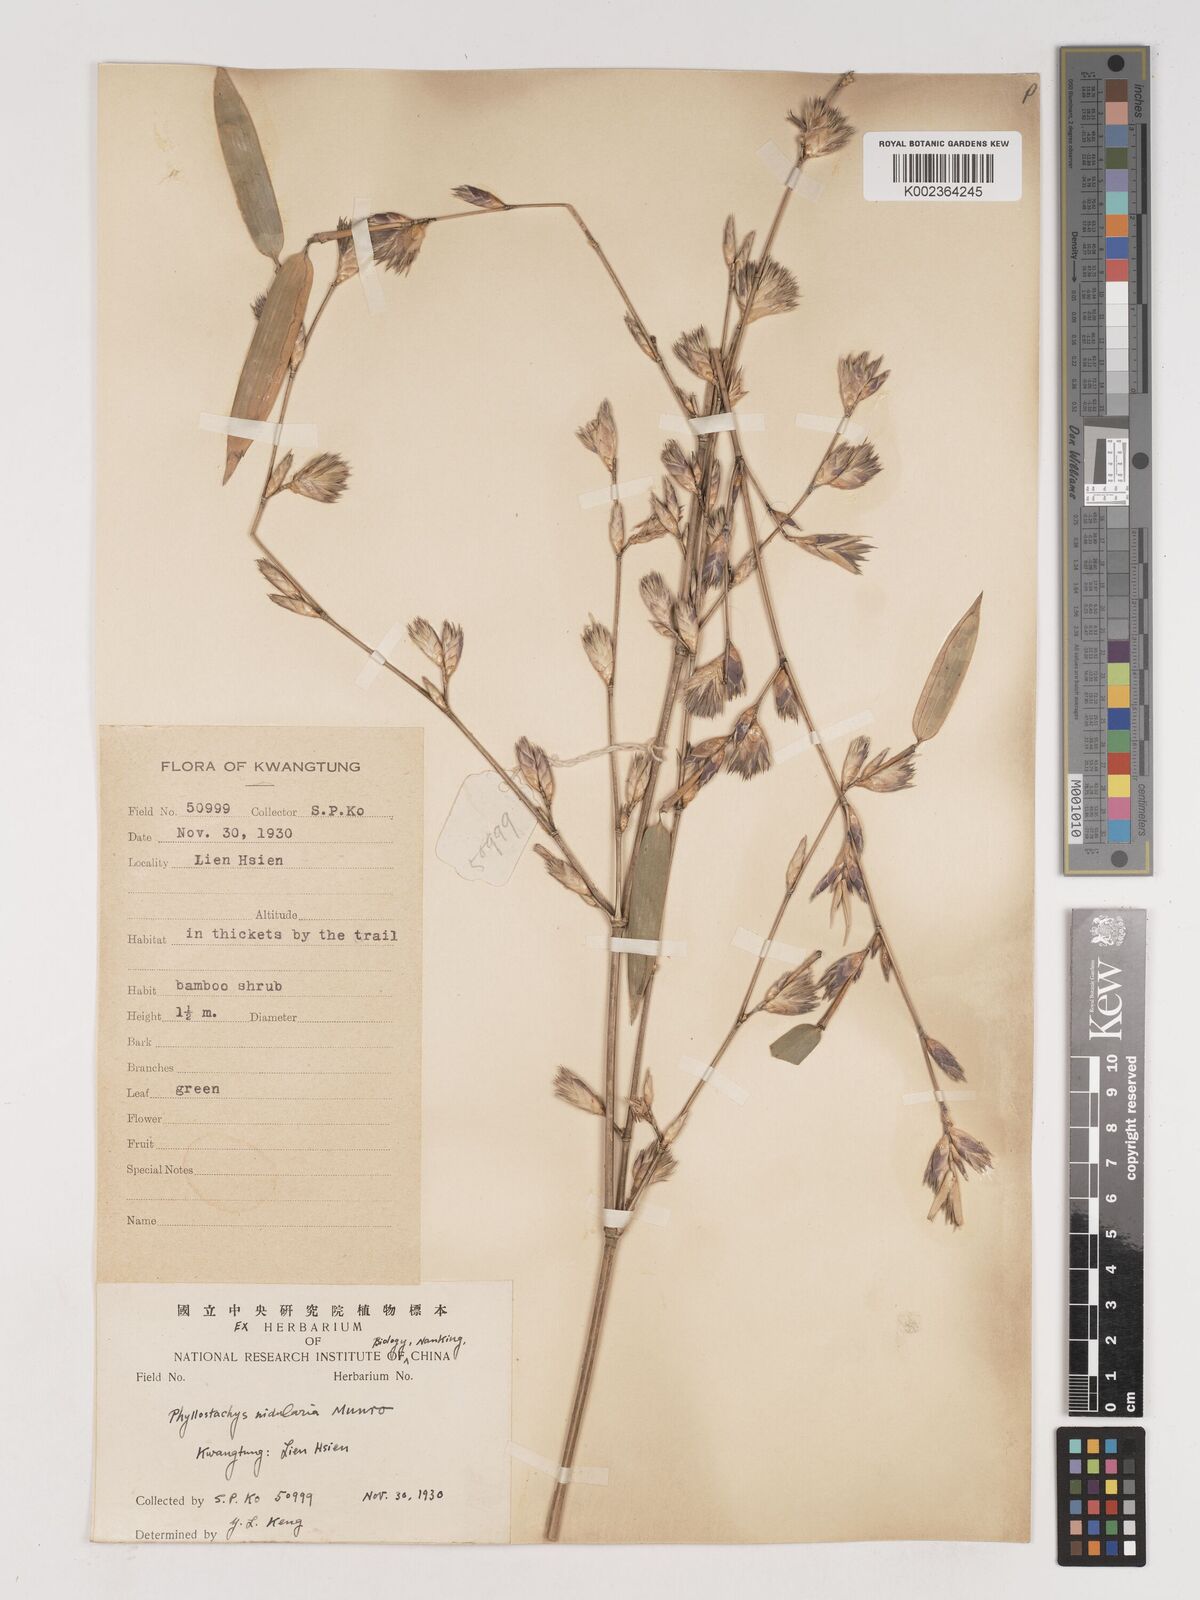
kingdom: Plantae
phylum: Tracheophyta
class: Liliopsida
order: Poales
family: Poaceae
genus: Phyllostachys
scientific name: Phyllostachys nidularia
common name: Broom bamboo
